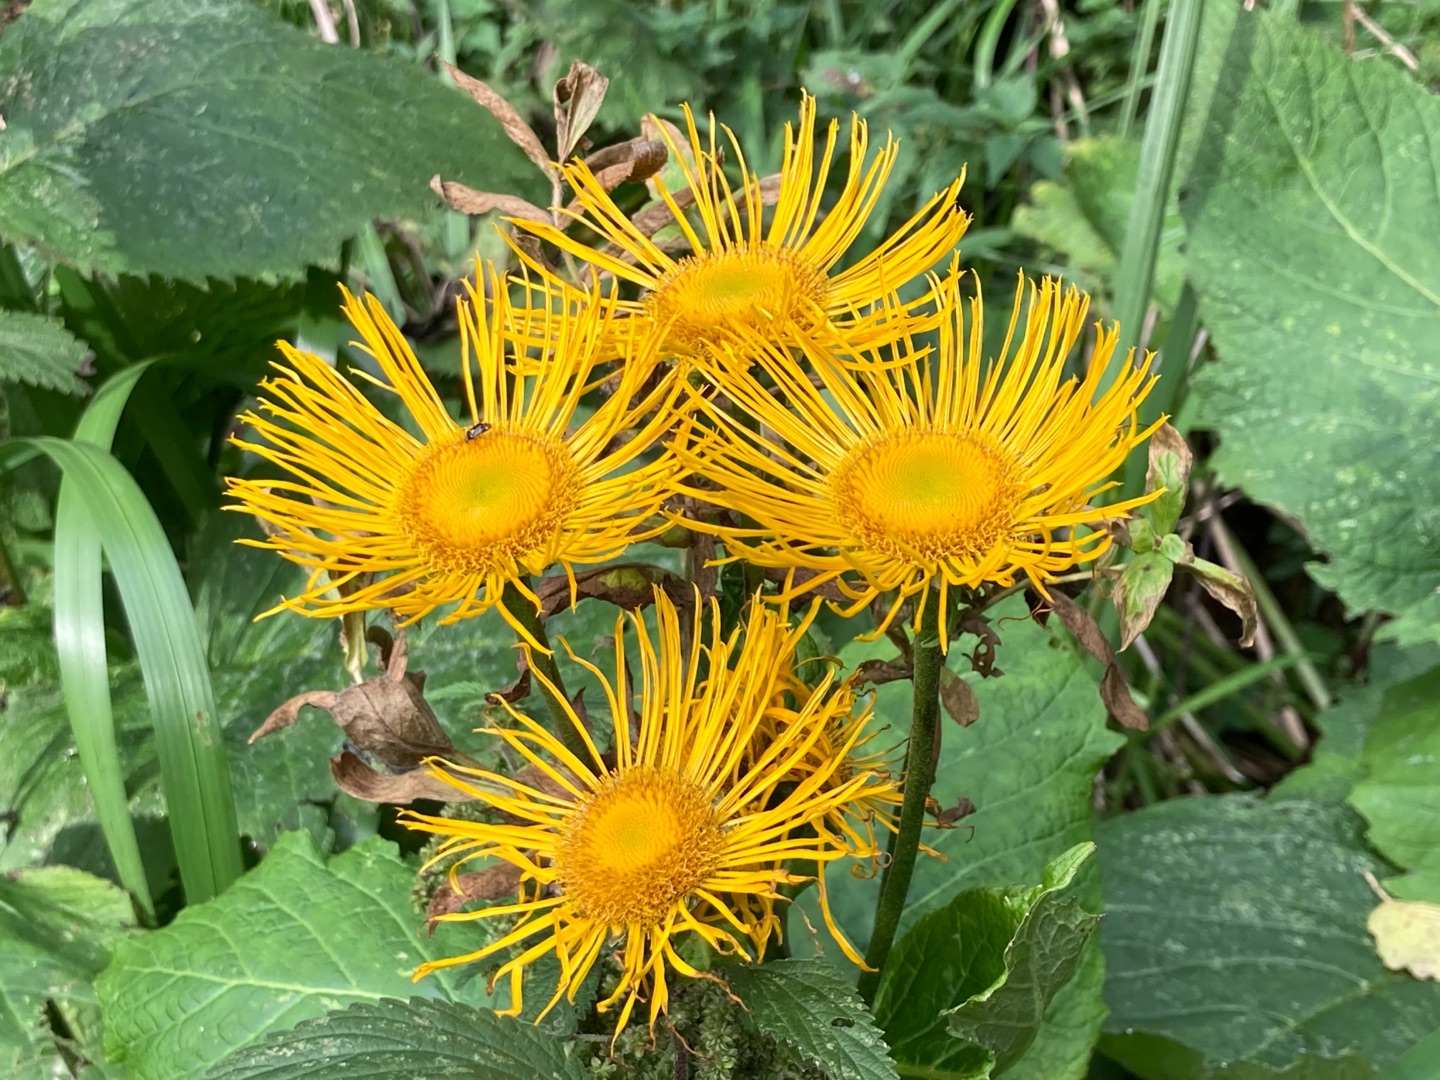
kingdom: Plantae
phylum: Tracheophyta
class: Magnoliopsida
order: Asterales
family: Asteraceae
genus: Telekia
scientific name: Telekia speciosa
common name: Tusindstråle
